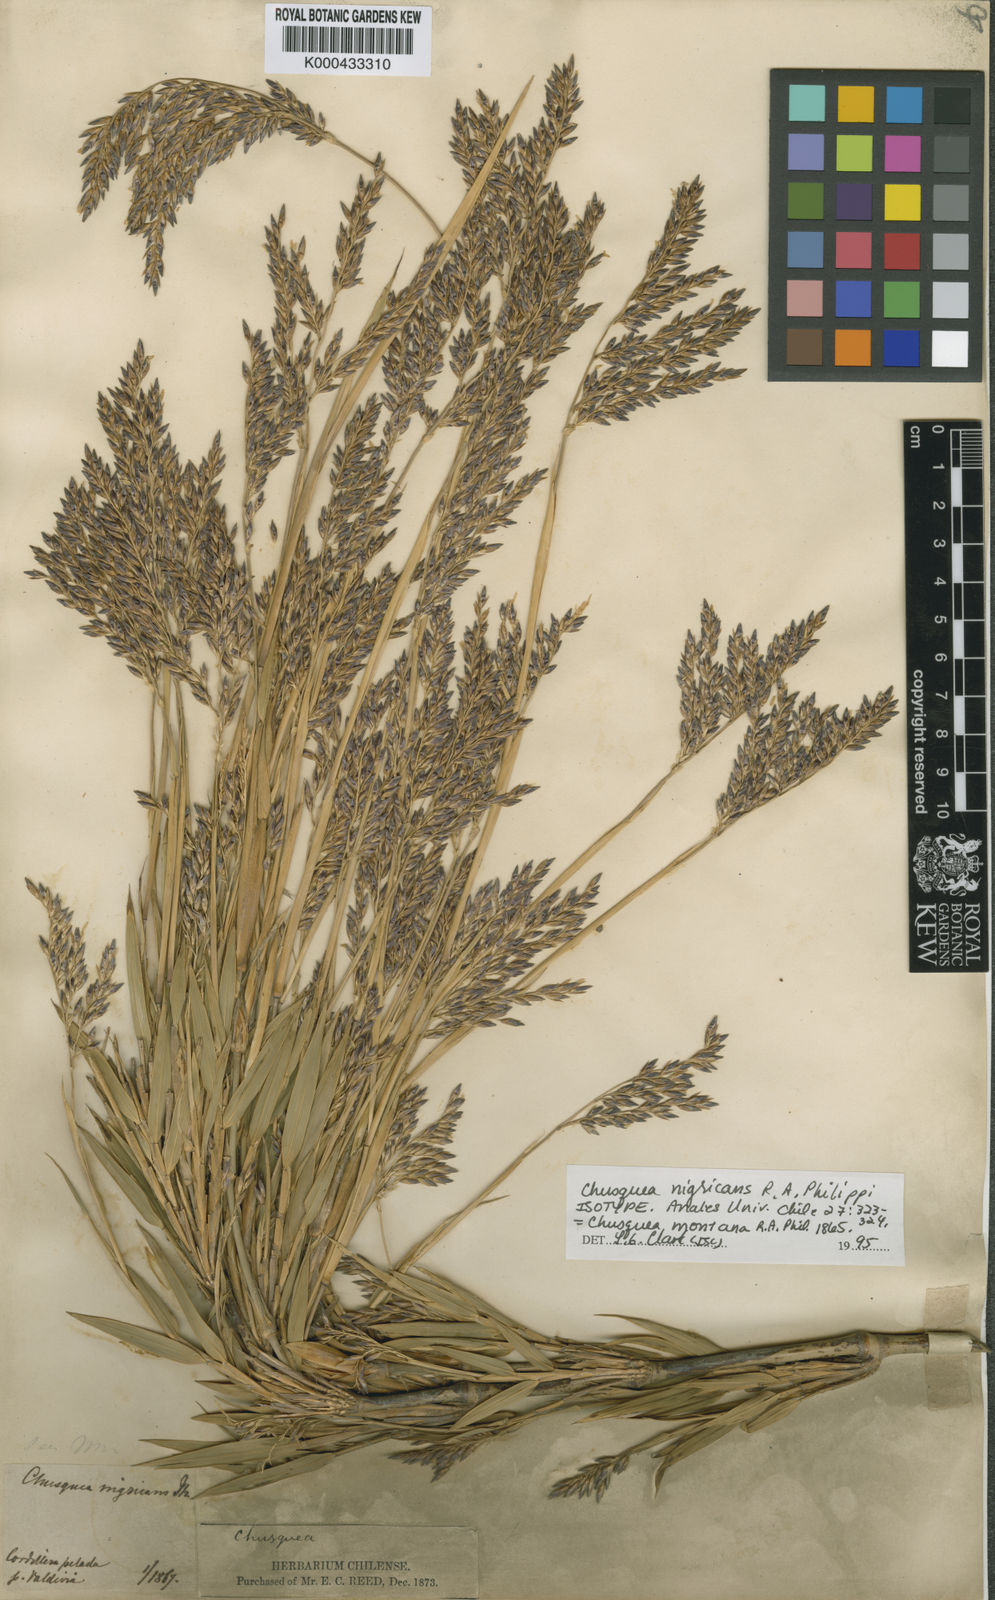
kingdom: Plantae
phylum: Tracheophyta
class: Liliopsida
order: Poales
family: Poaceae
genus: Chusquea
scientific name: Chusquea montana
